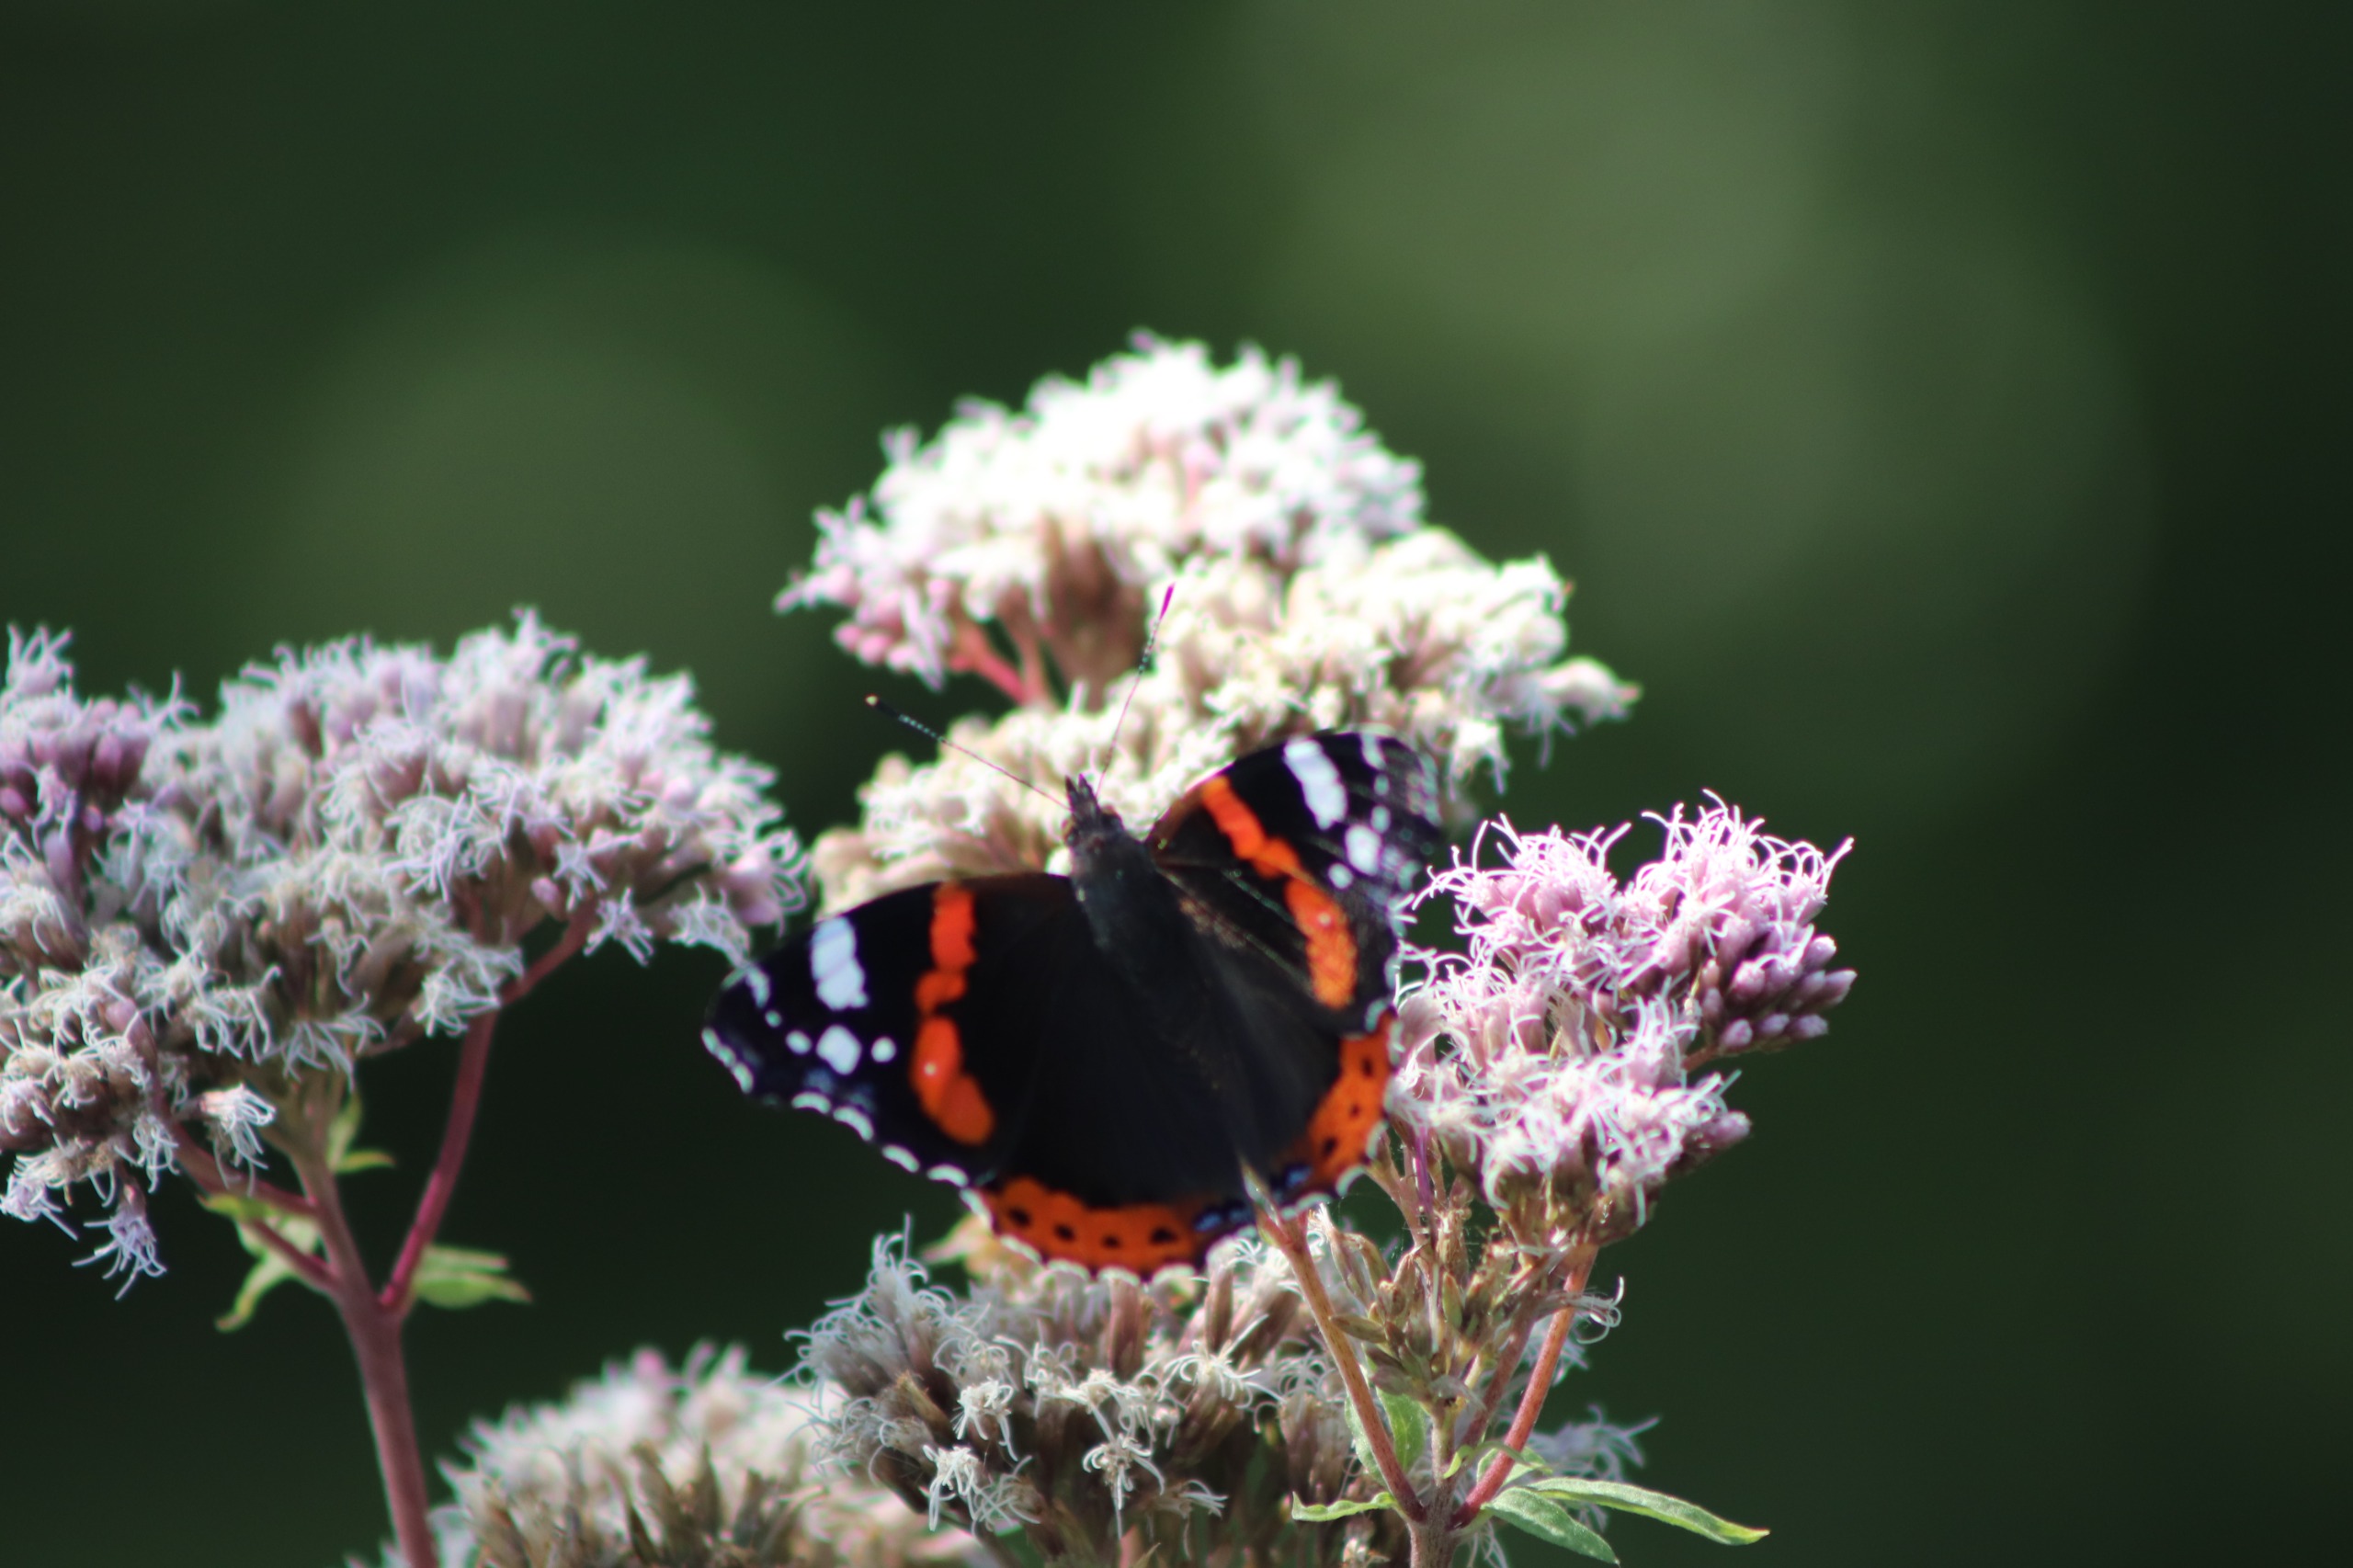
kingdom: Animalia
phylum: Arthropoda
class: Insecta
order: Lepidoptera
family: Nymphalidae
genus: Vanessa
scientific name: Vanessa atalanta
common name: Admiral
